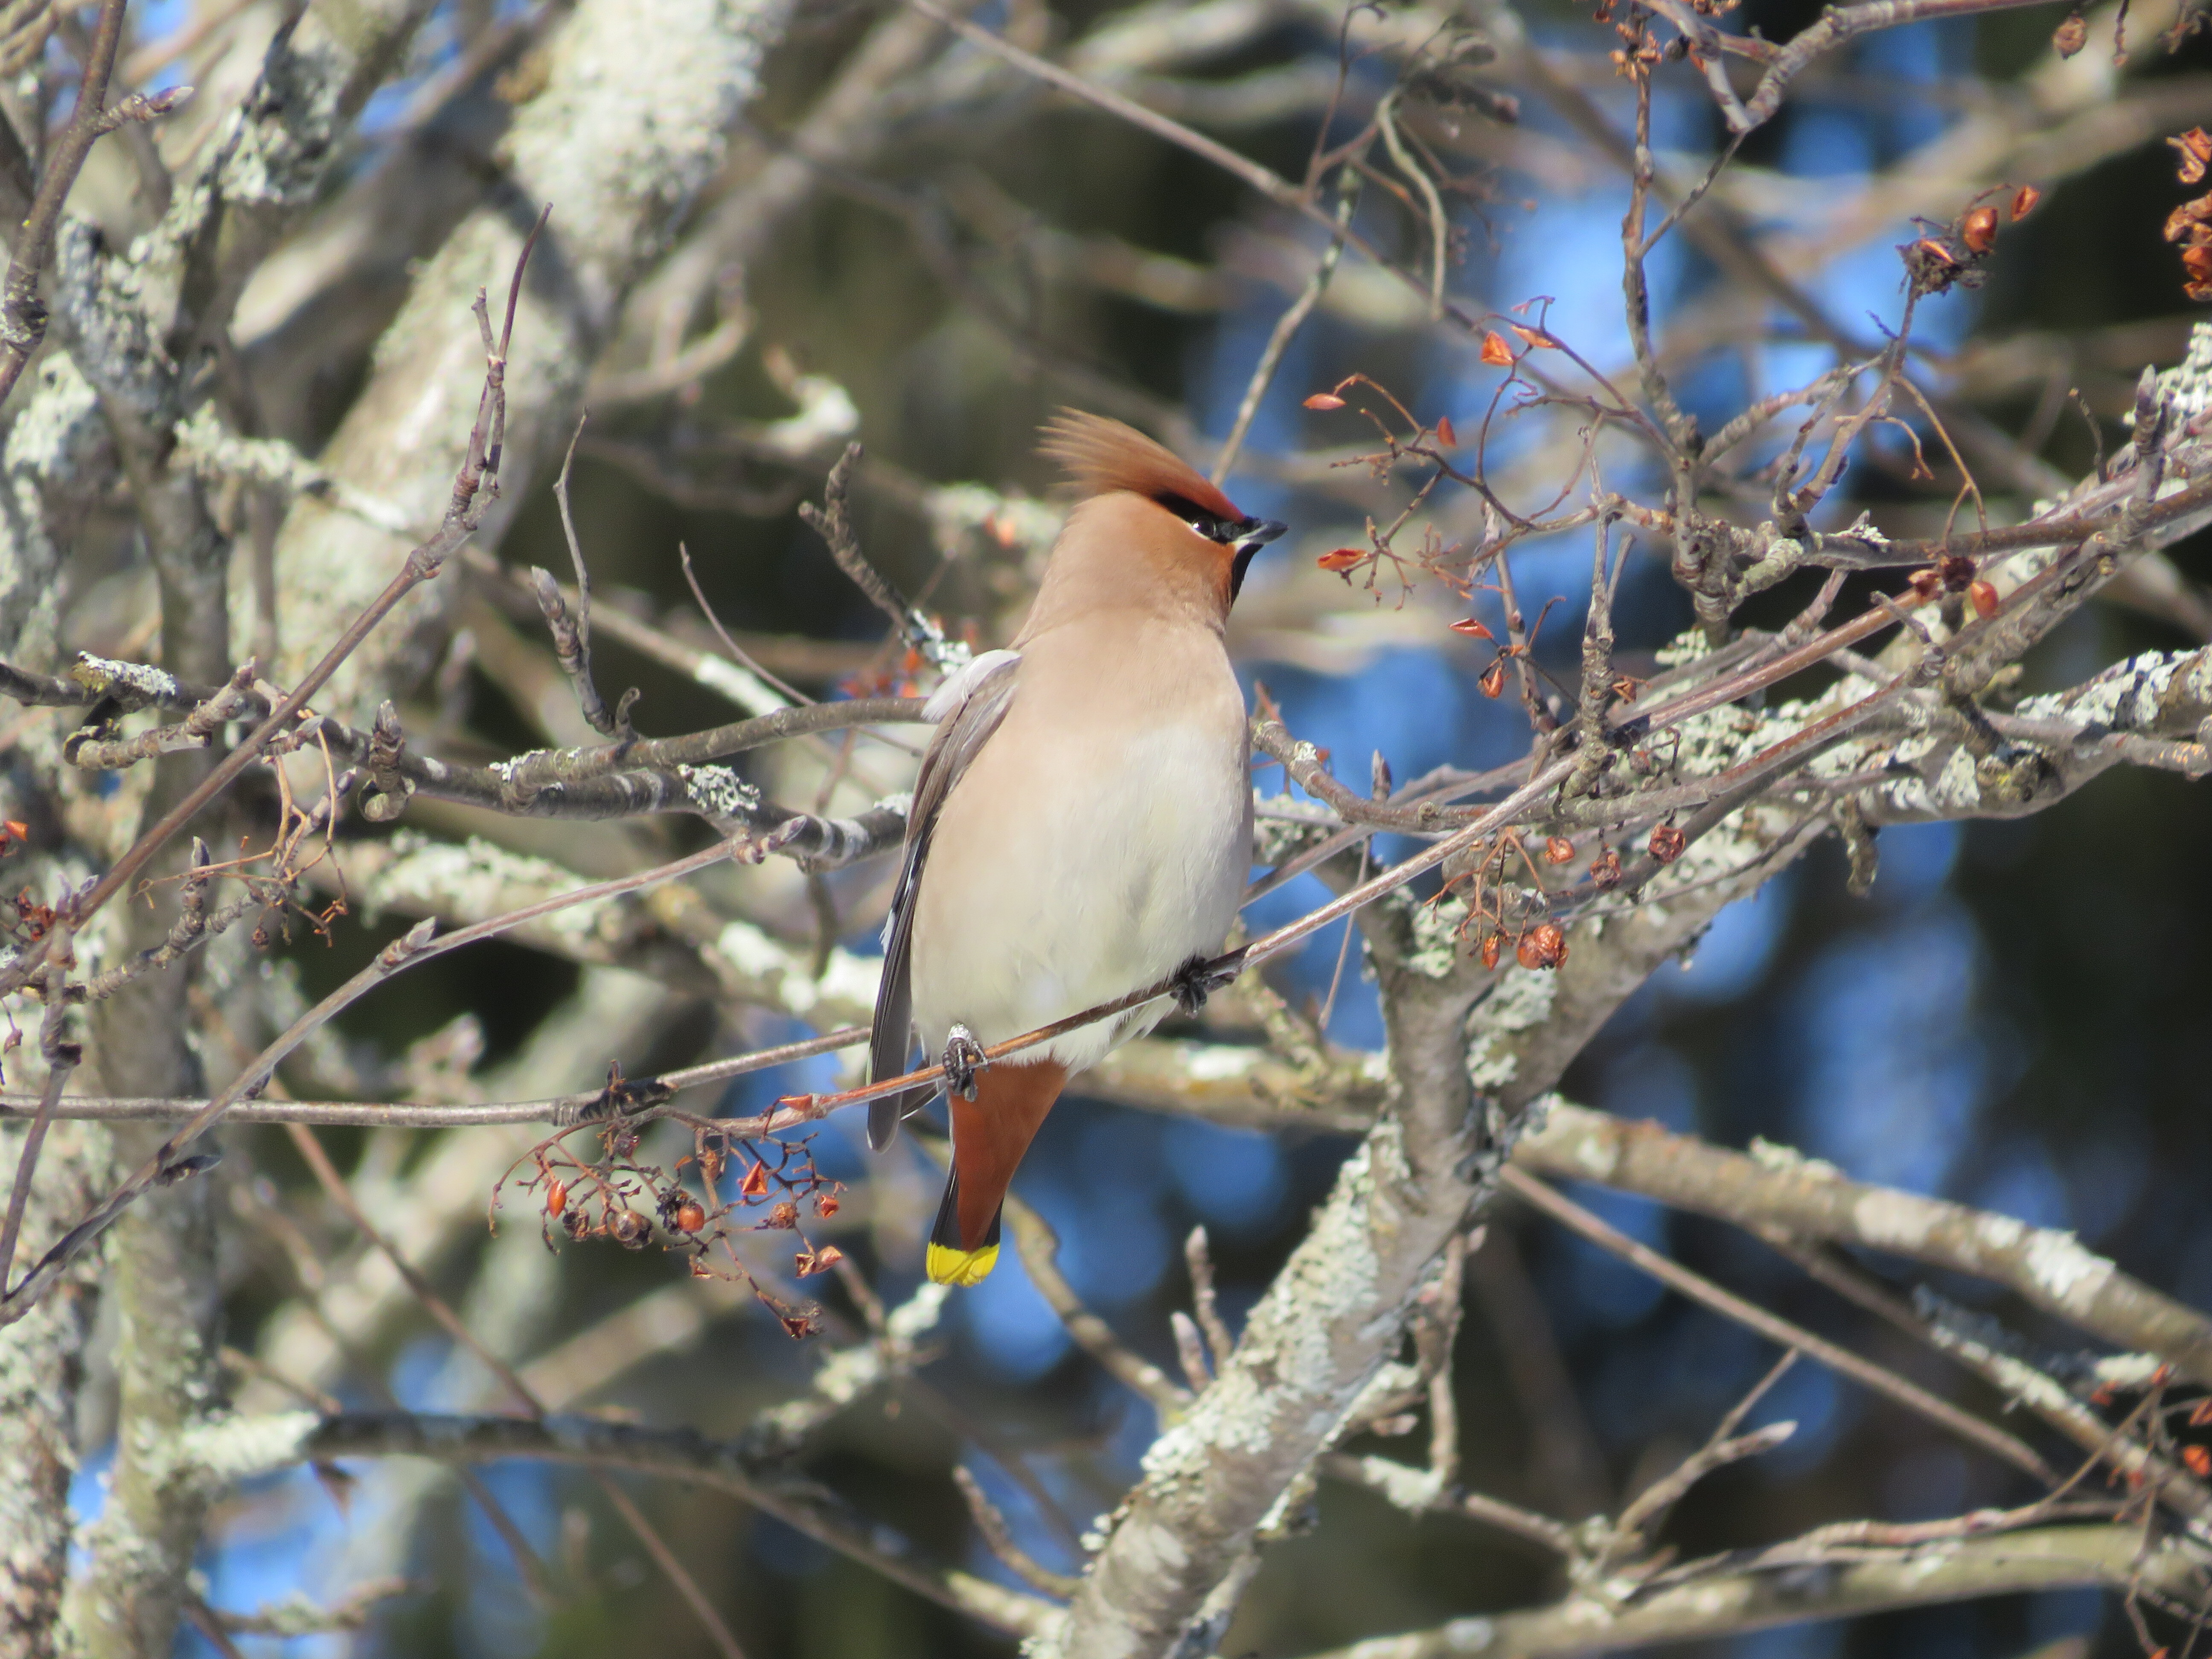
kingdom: Animalia
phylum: Chordata
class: Aves
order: Passeriformes
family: Bombycillidae
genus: Bombycilla
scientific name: Bombycilla garrulus
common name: Bohemian waxwing
